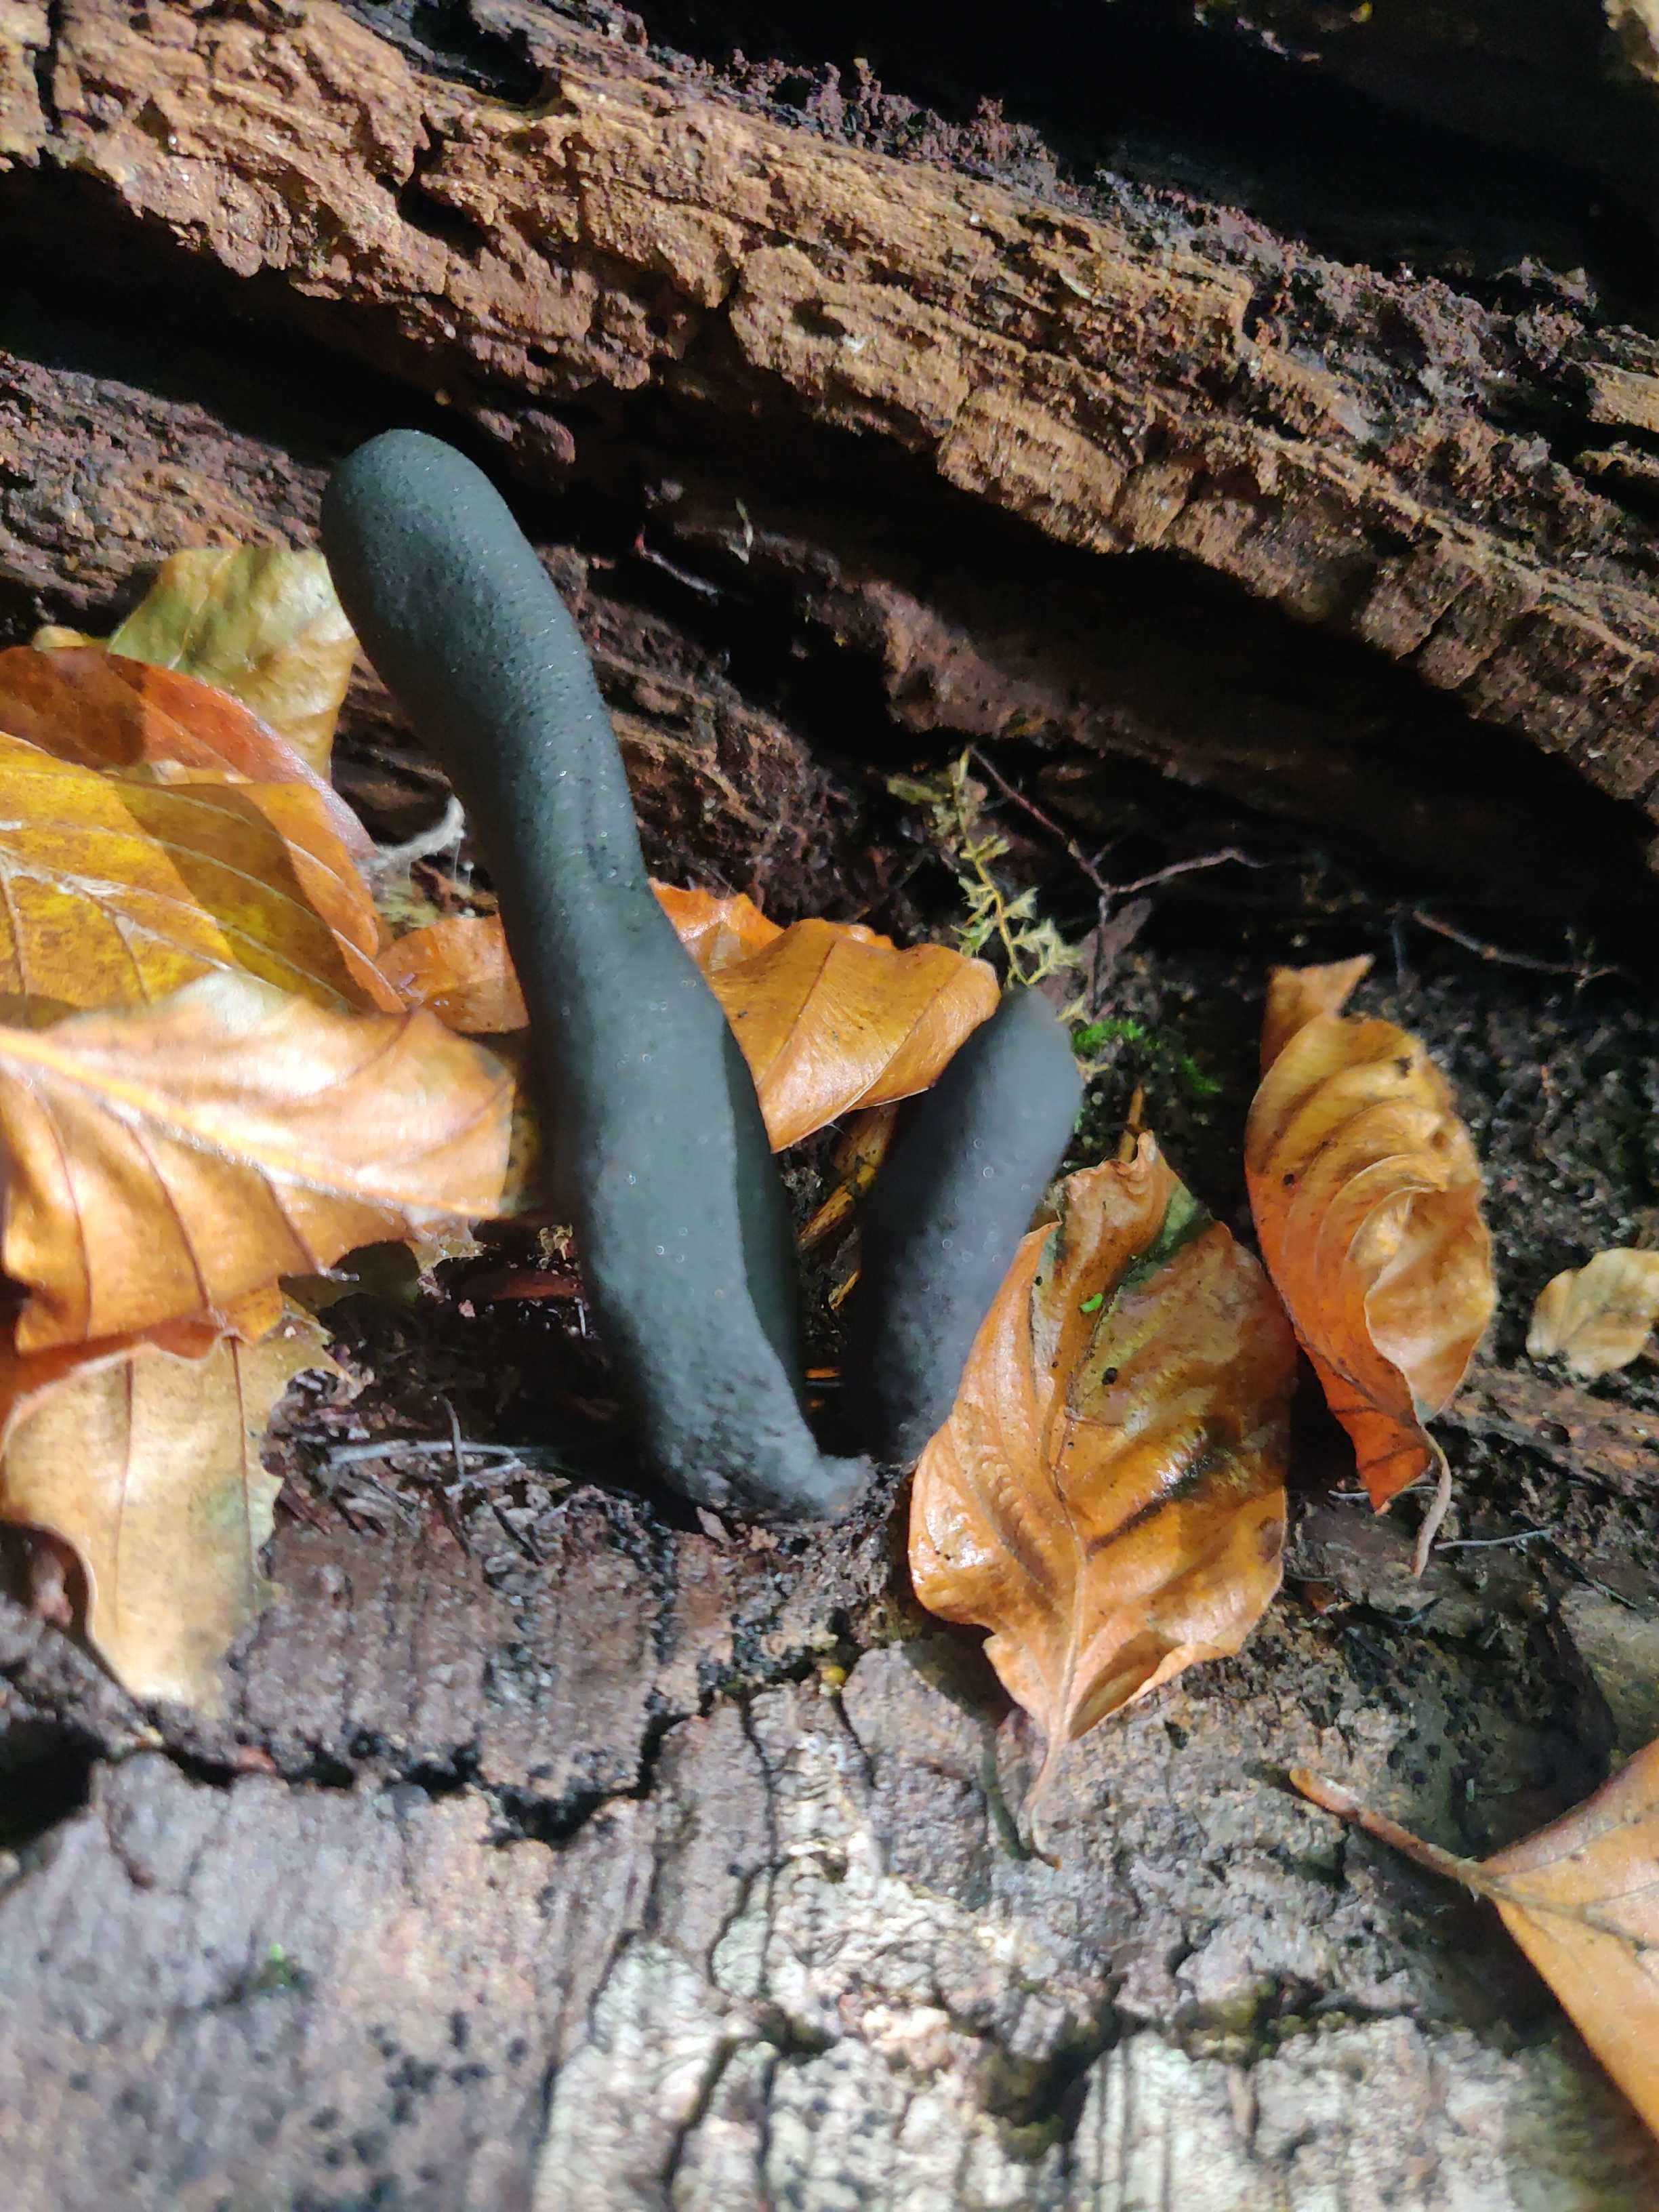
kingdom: Fungi
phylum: Ascomycota
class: Sordariomycetes
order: Xylariales
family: Xylariaceae
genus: Xylaria
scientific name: Xylaria
